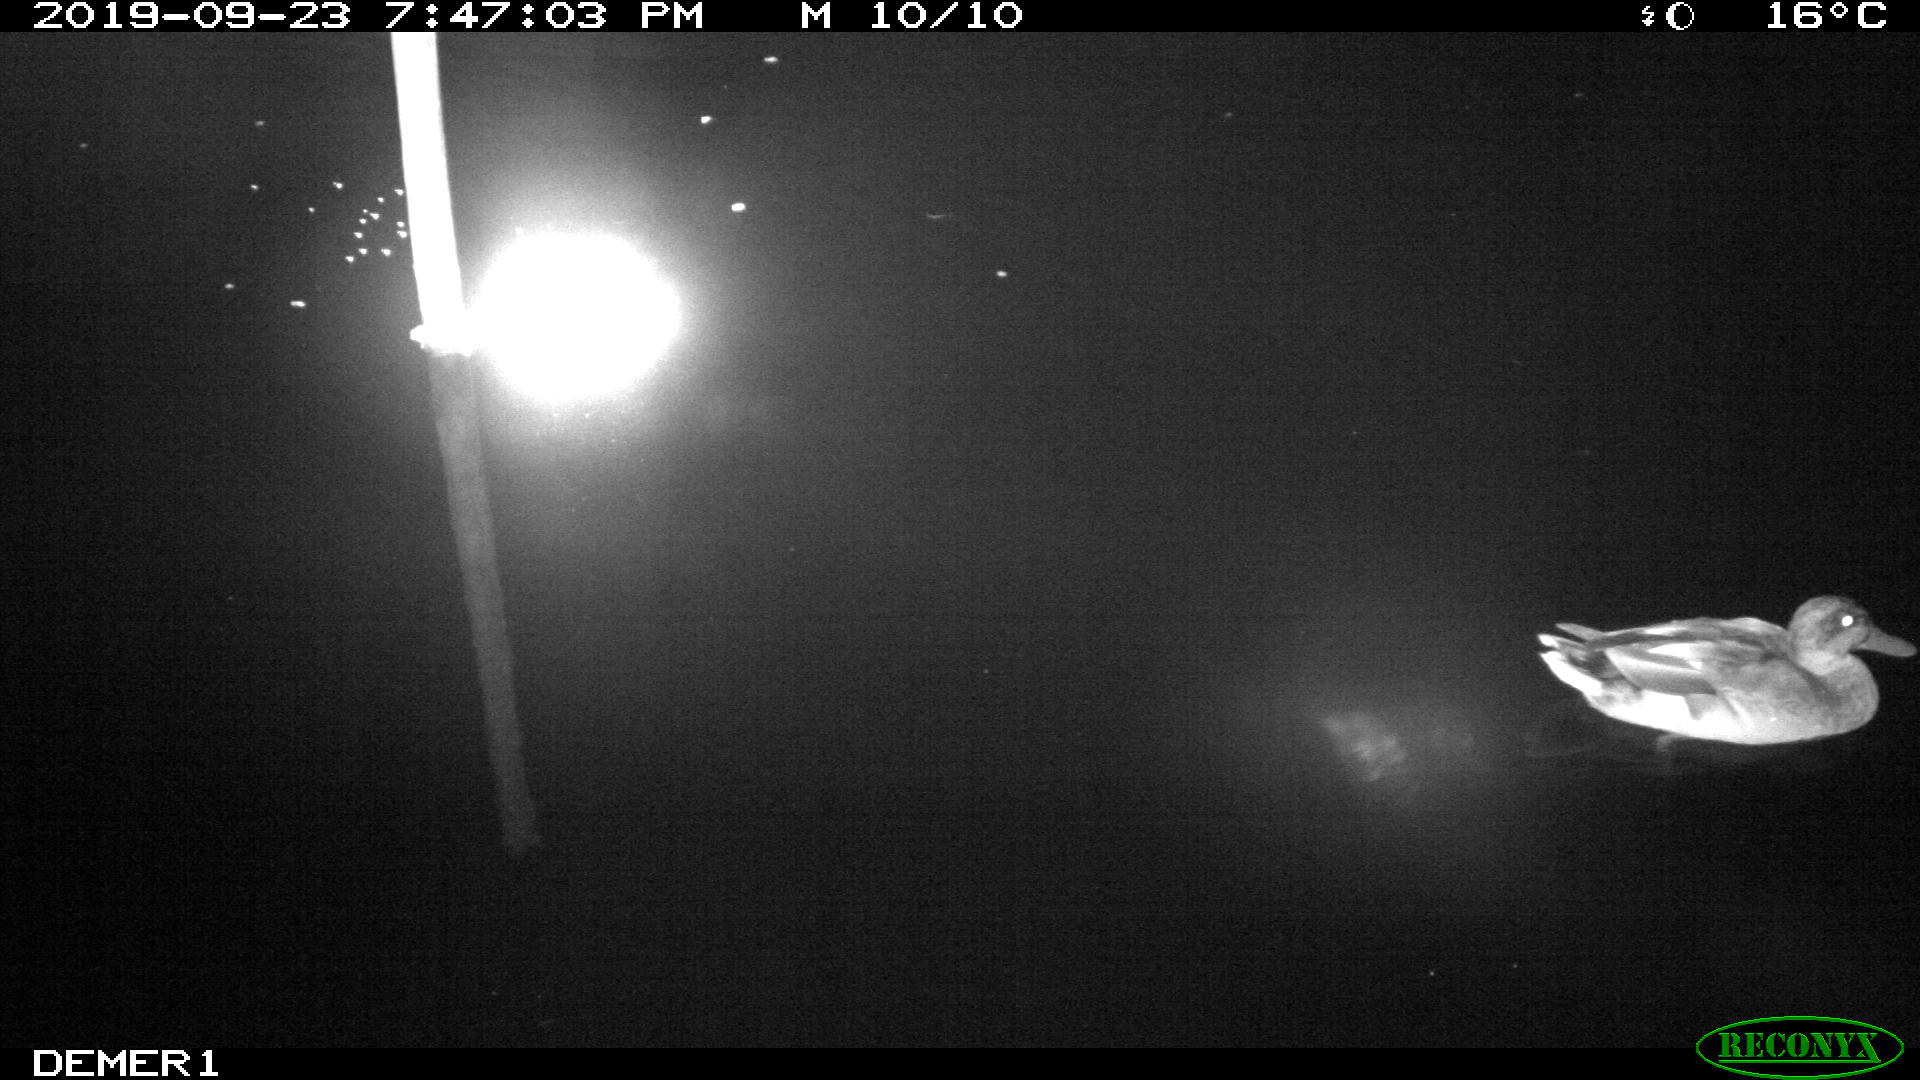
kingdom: Animalia
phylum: Chordata
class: Aves
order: Anseriformes
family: Anatidae
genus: Anas
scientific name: Anas platyrhynchos
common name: Mallard
